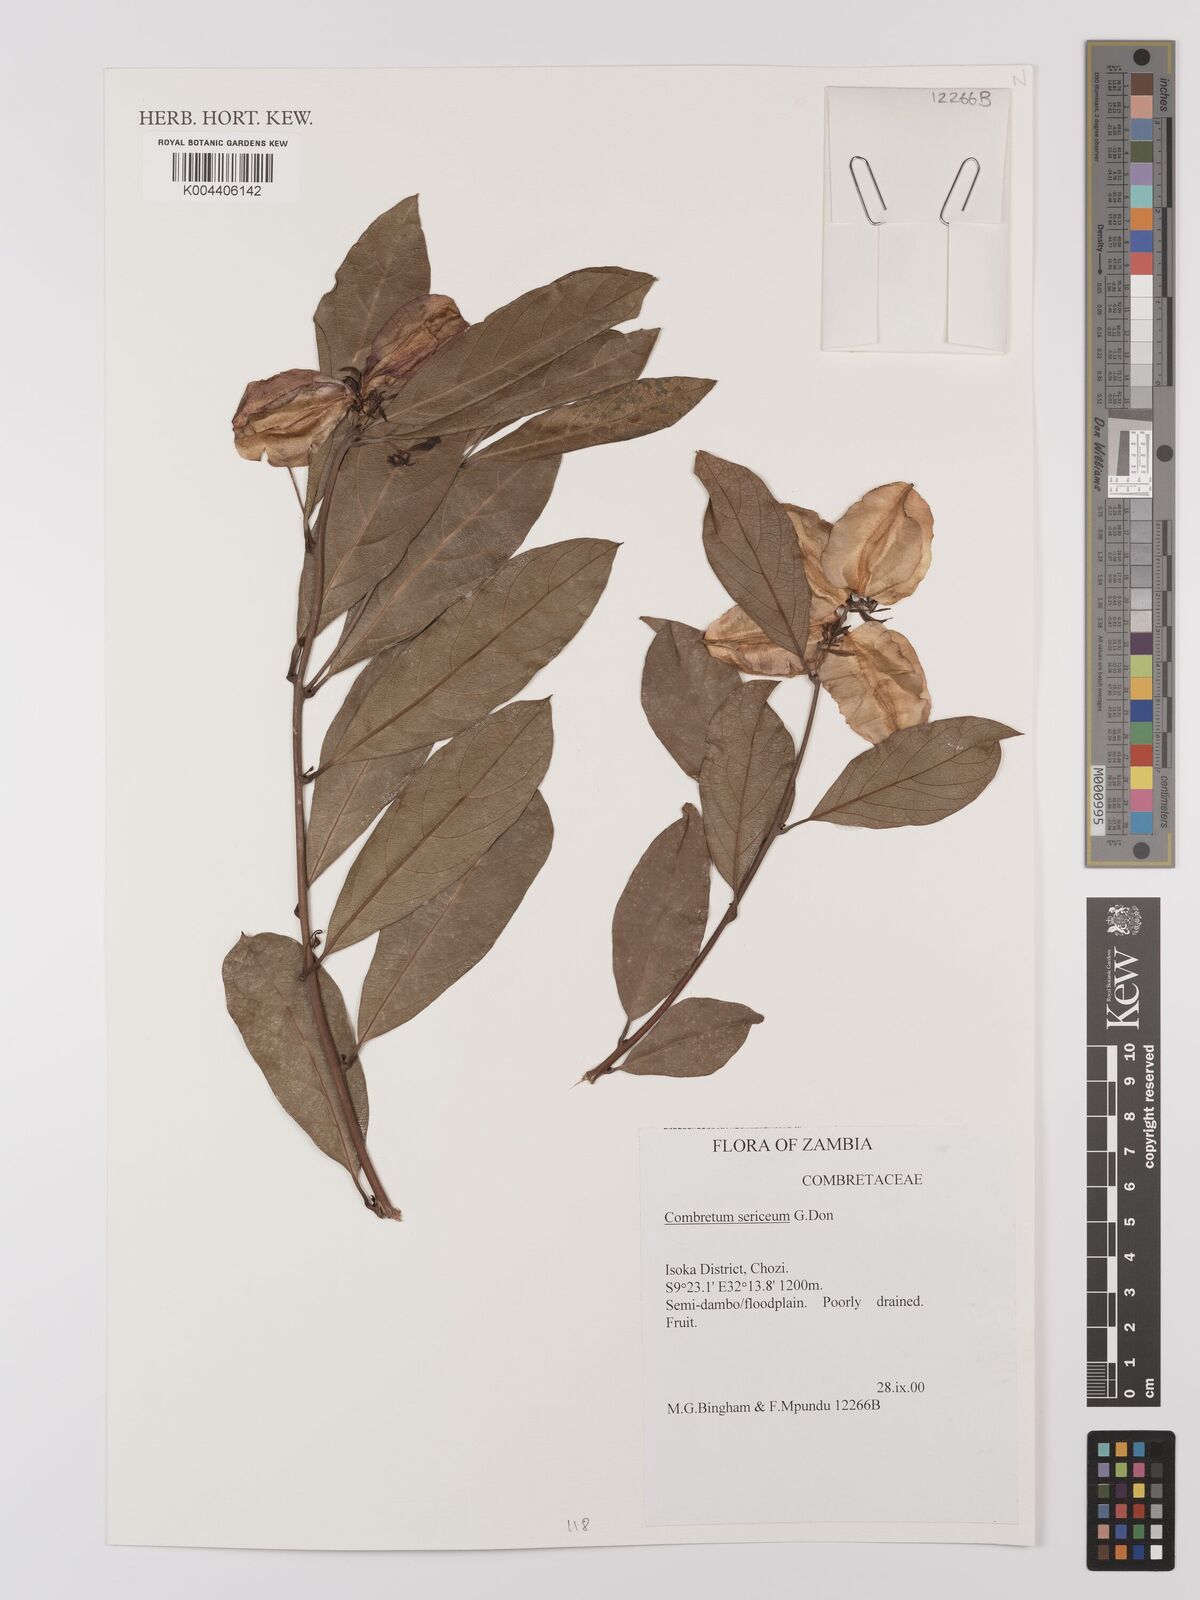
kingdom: Plantae
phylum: Tracheophyta
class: Magnoliopsida
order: Myrtales
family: Combretaceae
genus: Combretum
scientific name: Combretum sericeum
